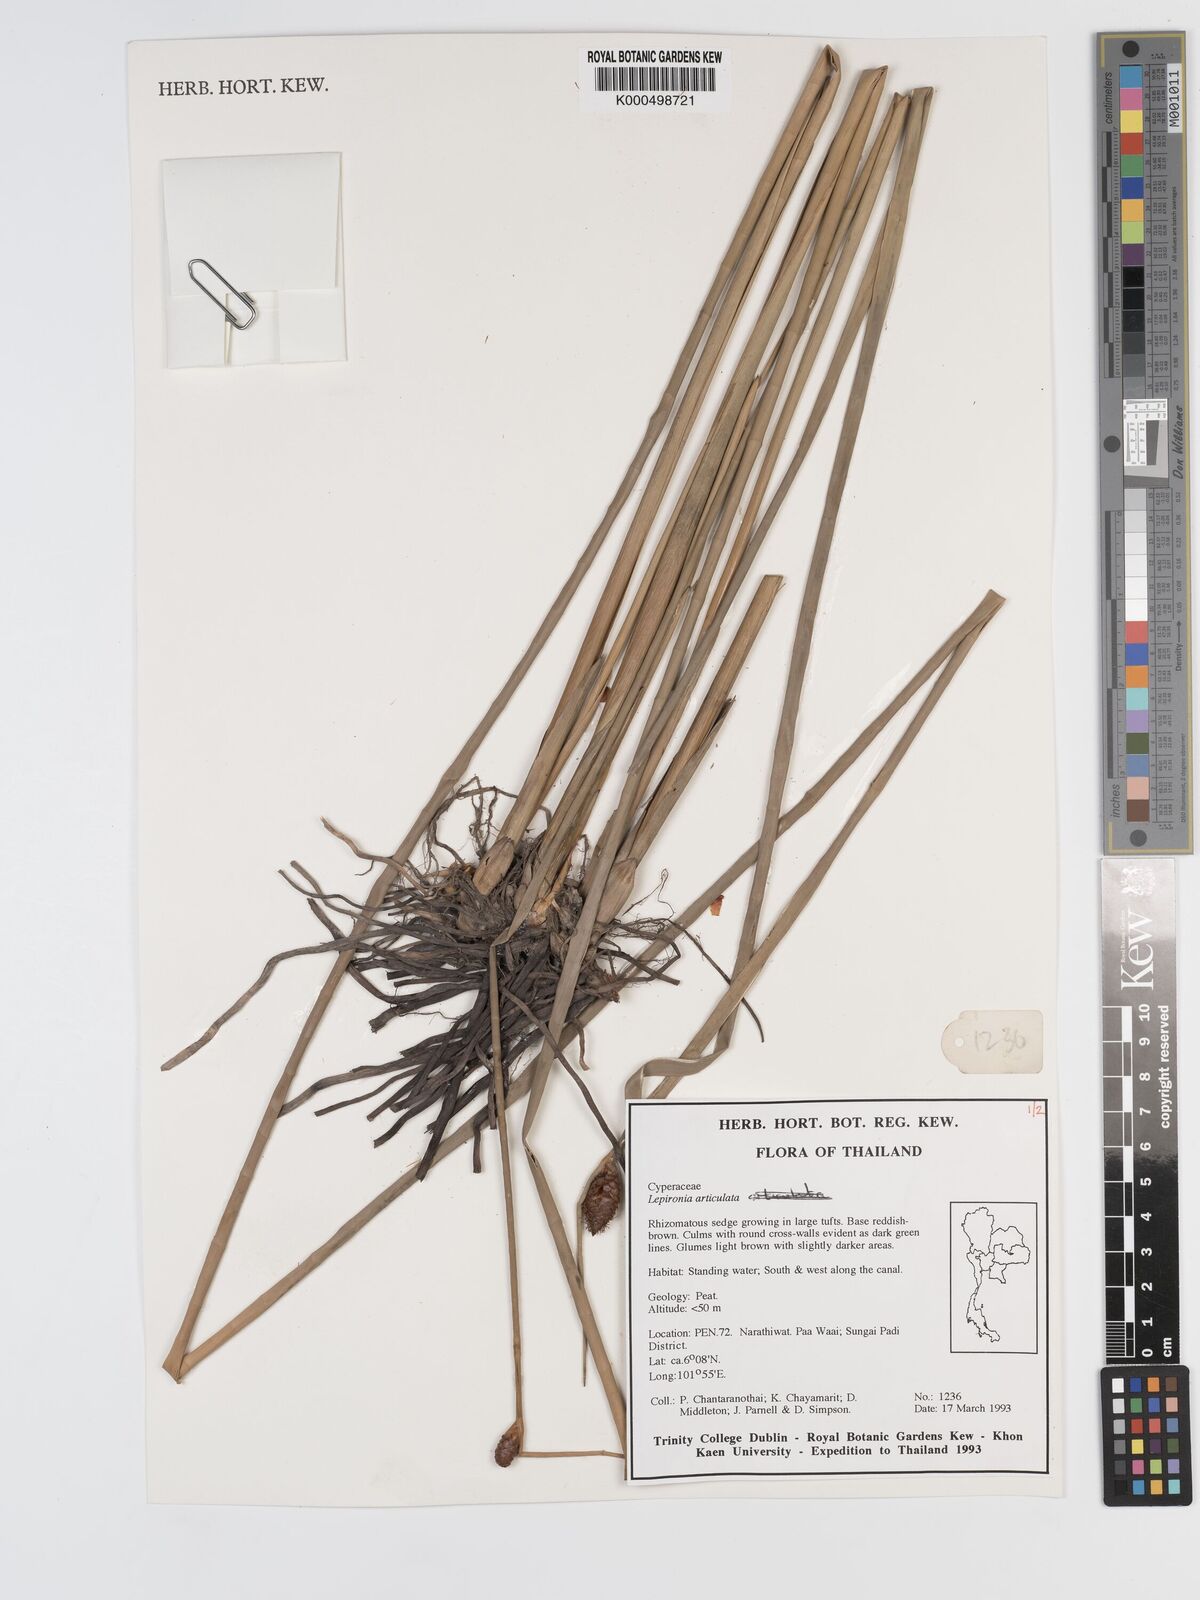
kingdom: Plantae
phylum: Tracheophyta
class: Liliopsida
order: Poales
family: Cyperaceae
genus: Lepironia
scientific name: Lepironia articulata
